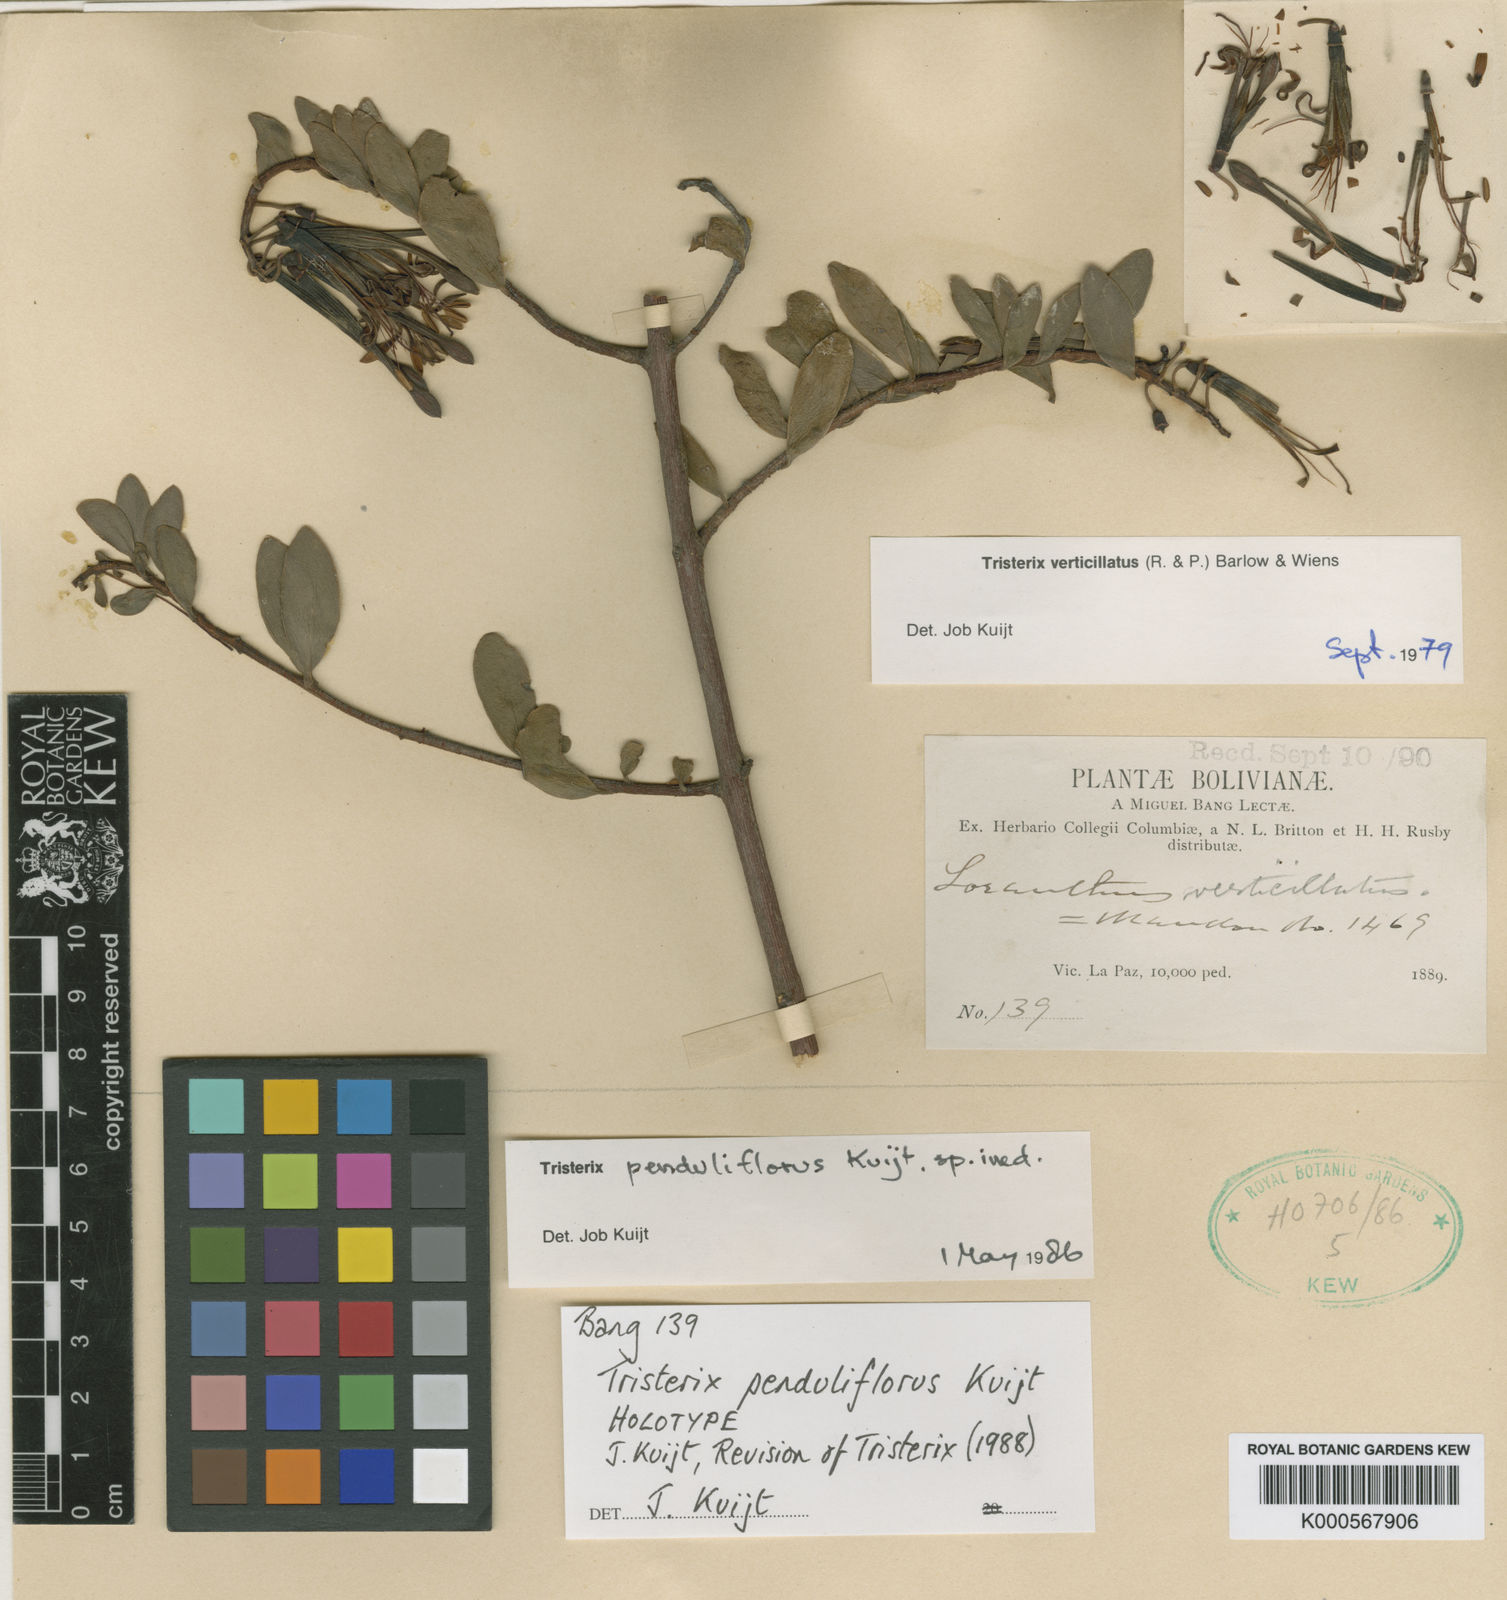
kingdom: Plantae
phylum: Tracheophyta
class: Magnoliopsida
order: Santalales
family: Loranthaceae
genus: Tristerix
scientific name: Tristerix penduliflorus
